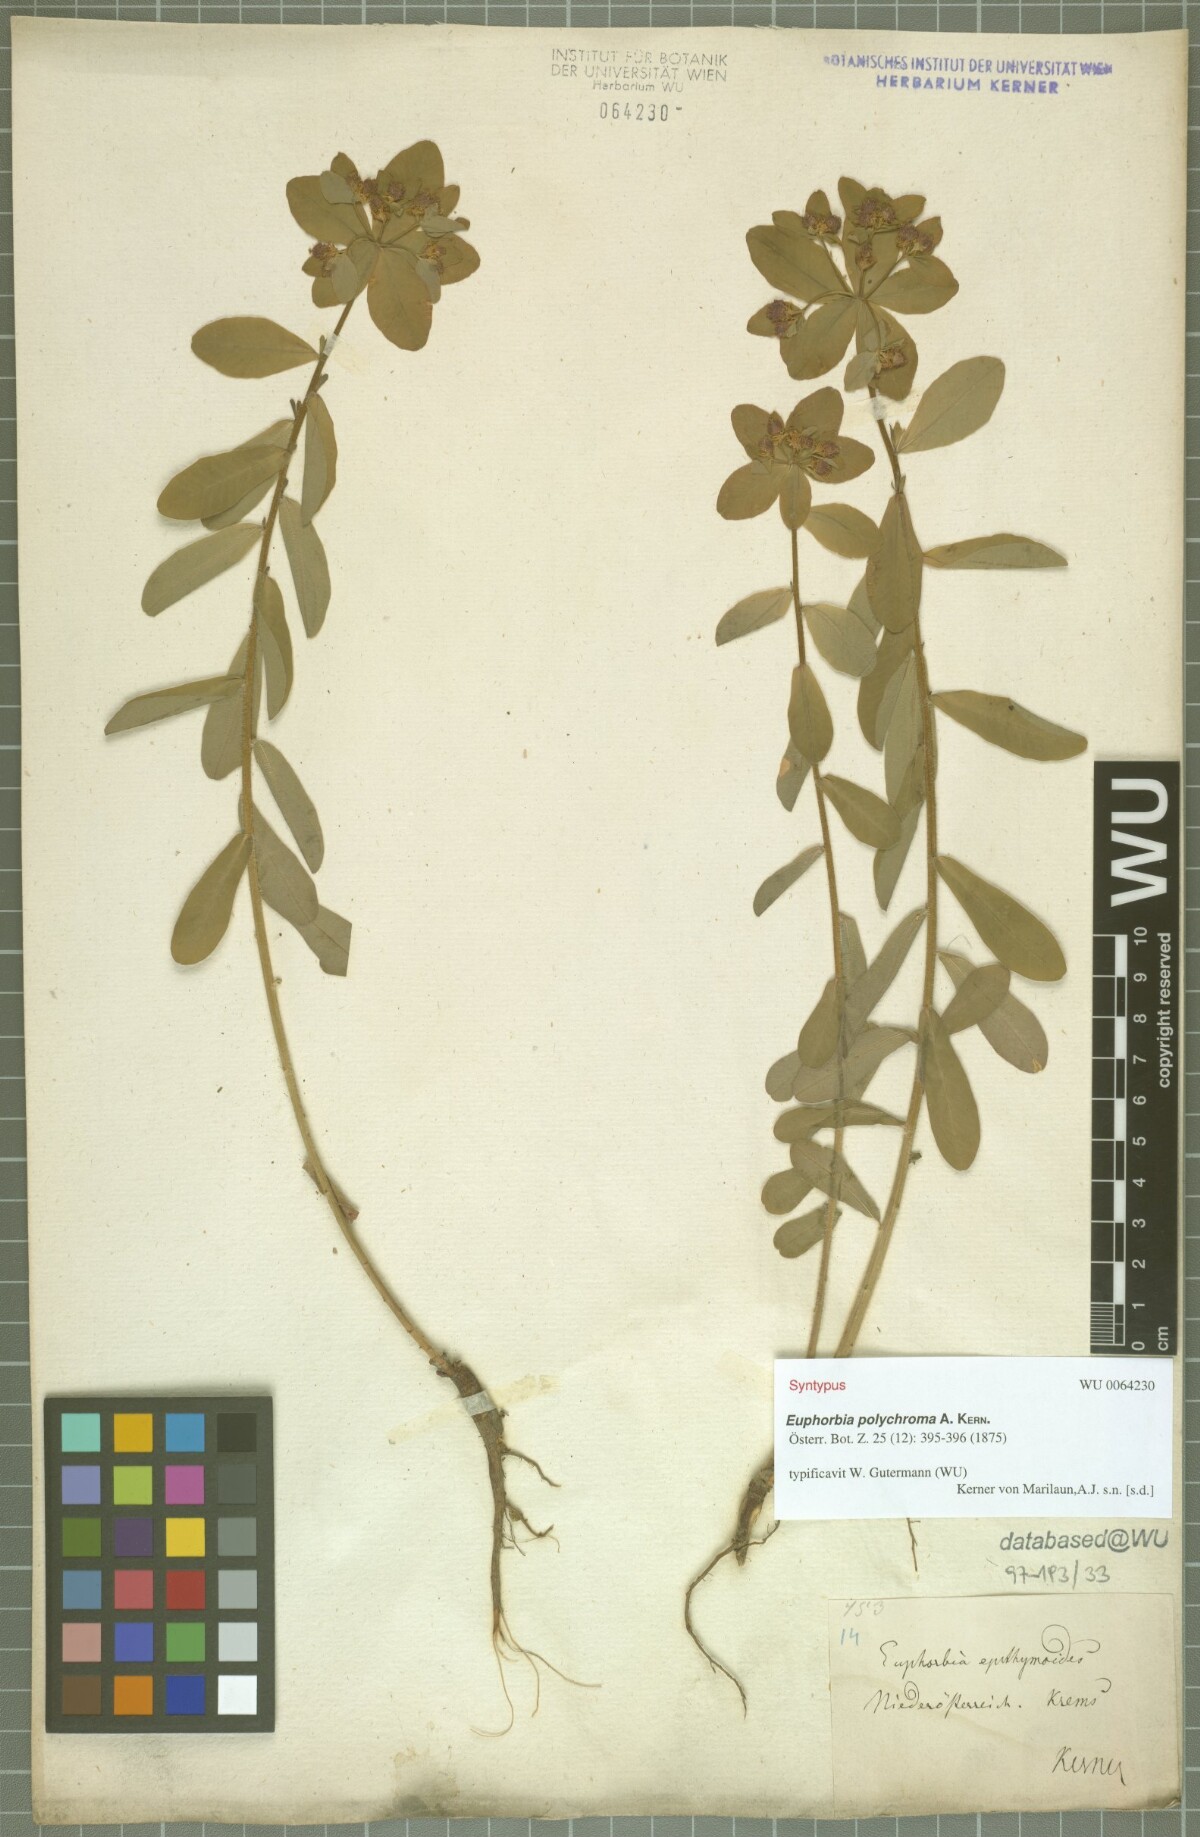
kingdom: Plantae
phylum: Tracheophyta
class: Magnoliopsida
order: Malpighiales
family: Euphorbiaceae
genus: Euphorbia
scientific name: Euphorbia epithymoides
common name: Cushion spurge
